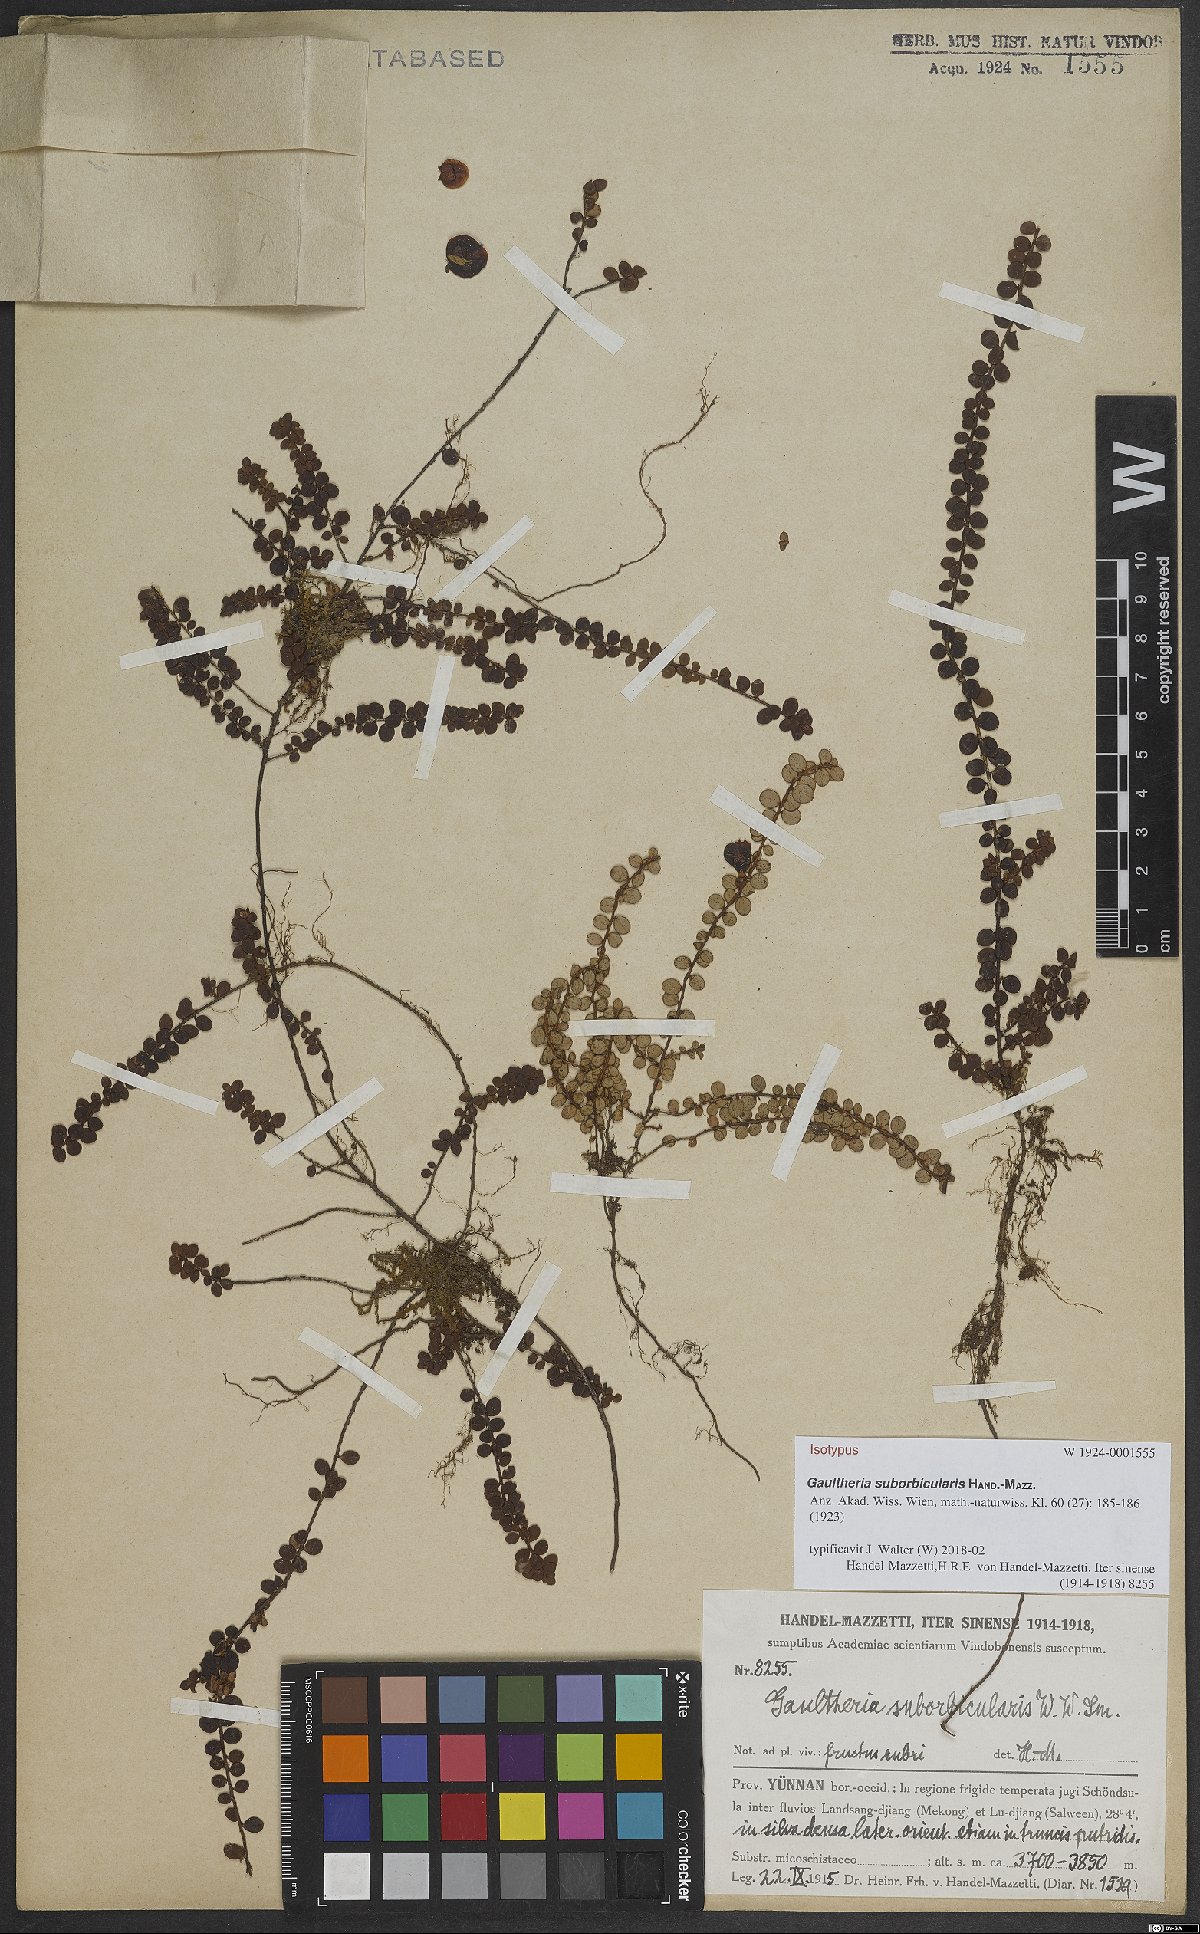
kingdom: Plantae
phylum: Tracheophyta
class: Magnoliopsida
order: Ericales
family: Ericaceae
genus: Gaultheria
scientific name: Gaultheria albiflora
